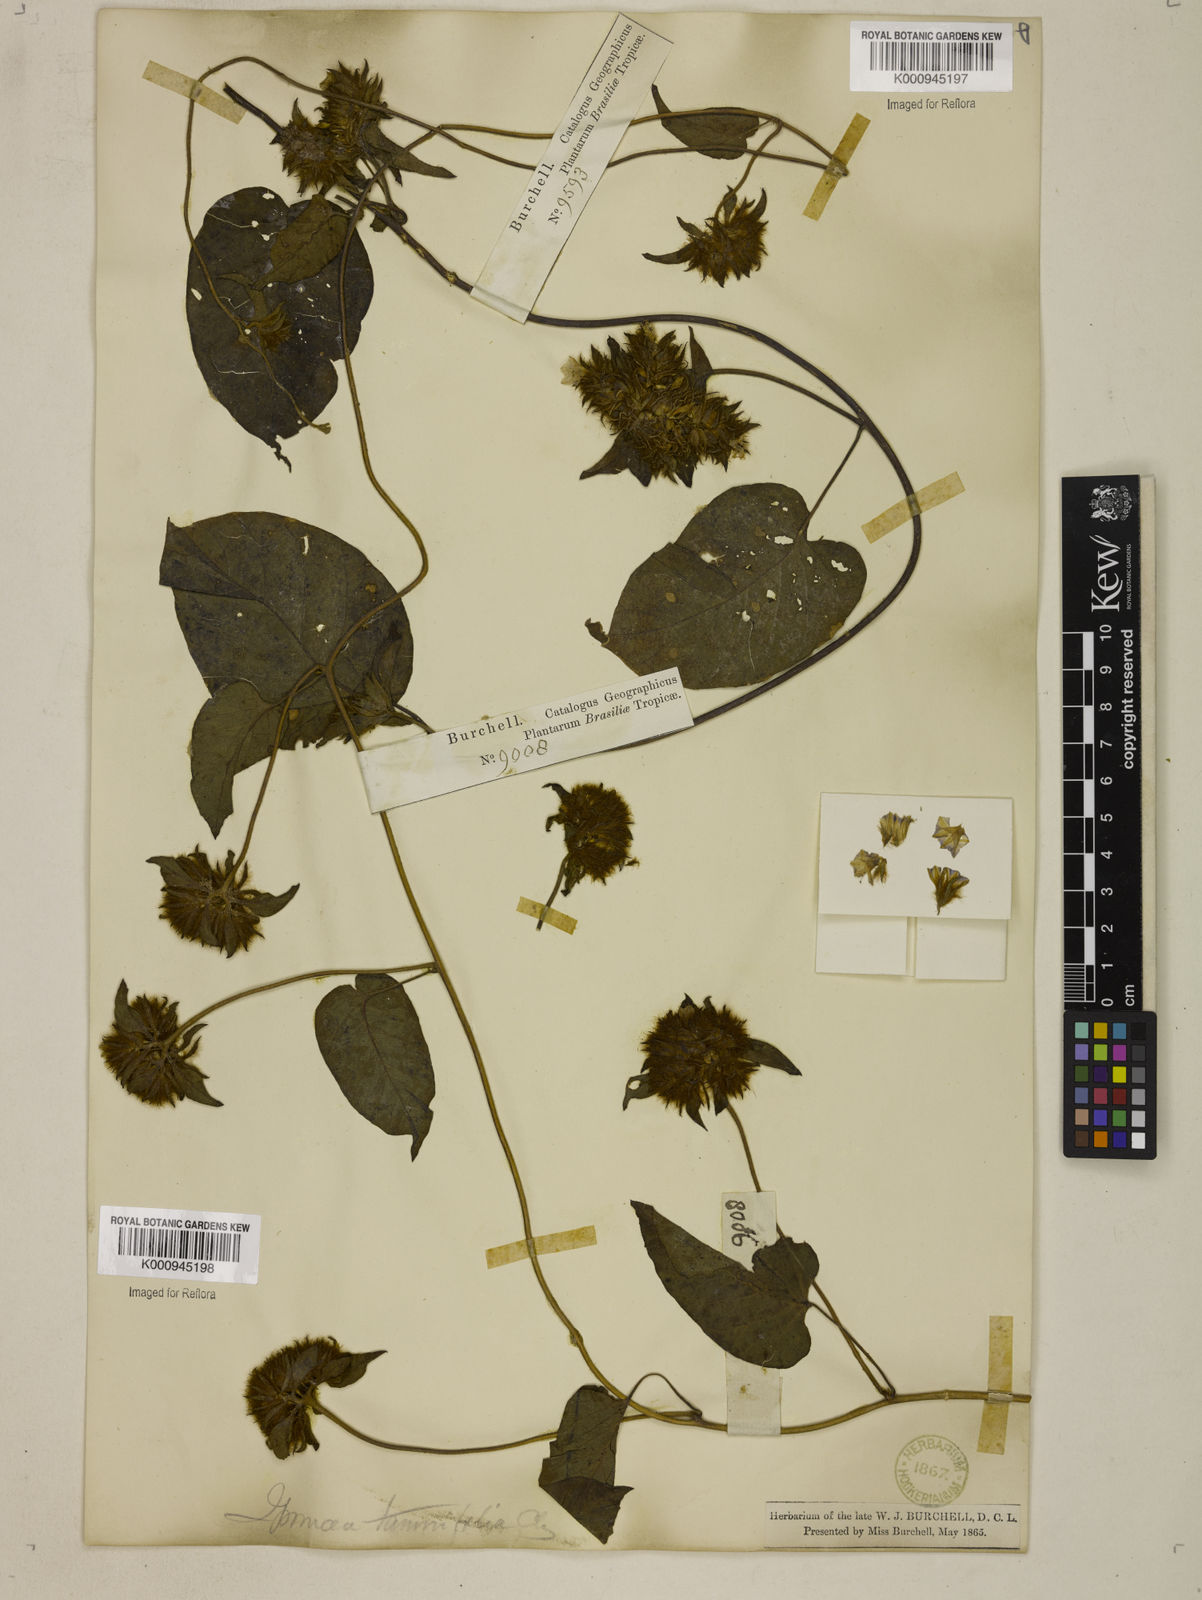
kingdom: Plantae
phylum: Tracheophyta
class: Magnoliopsida
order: Solanales
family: Convolvulaceae
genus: Jacquemontia
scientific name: Jacquemontia tamnifolia
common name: Hairy clustervine
